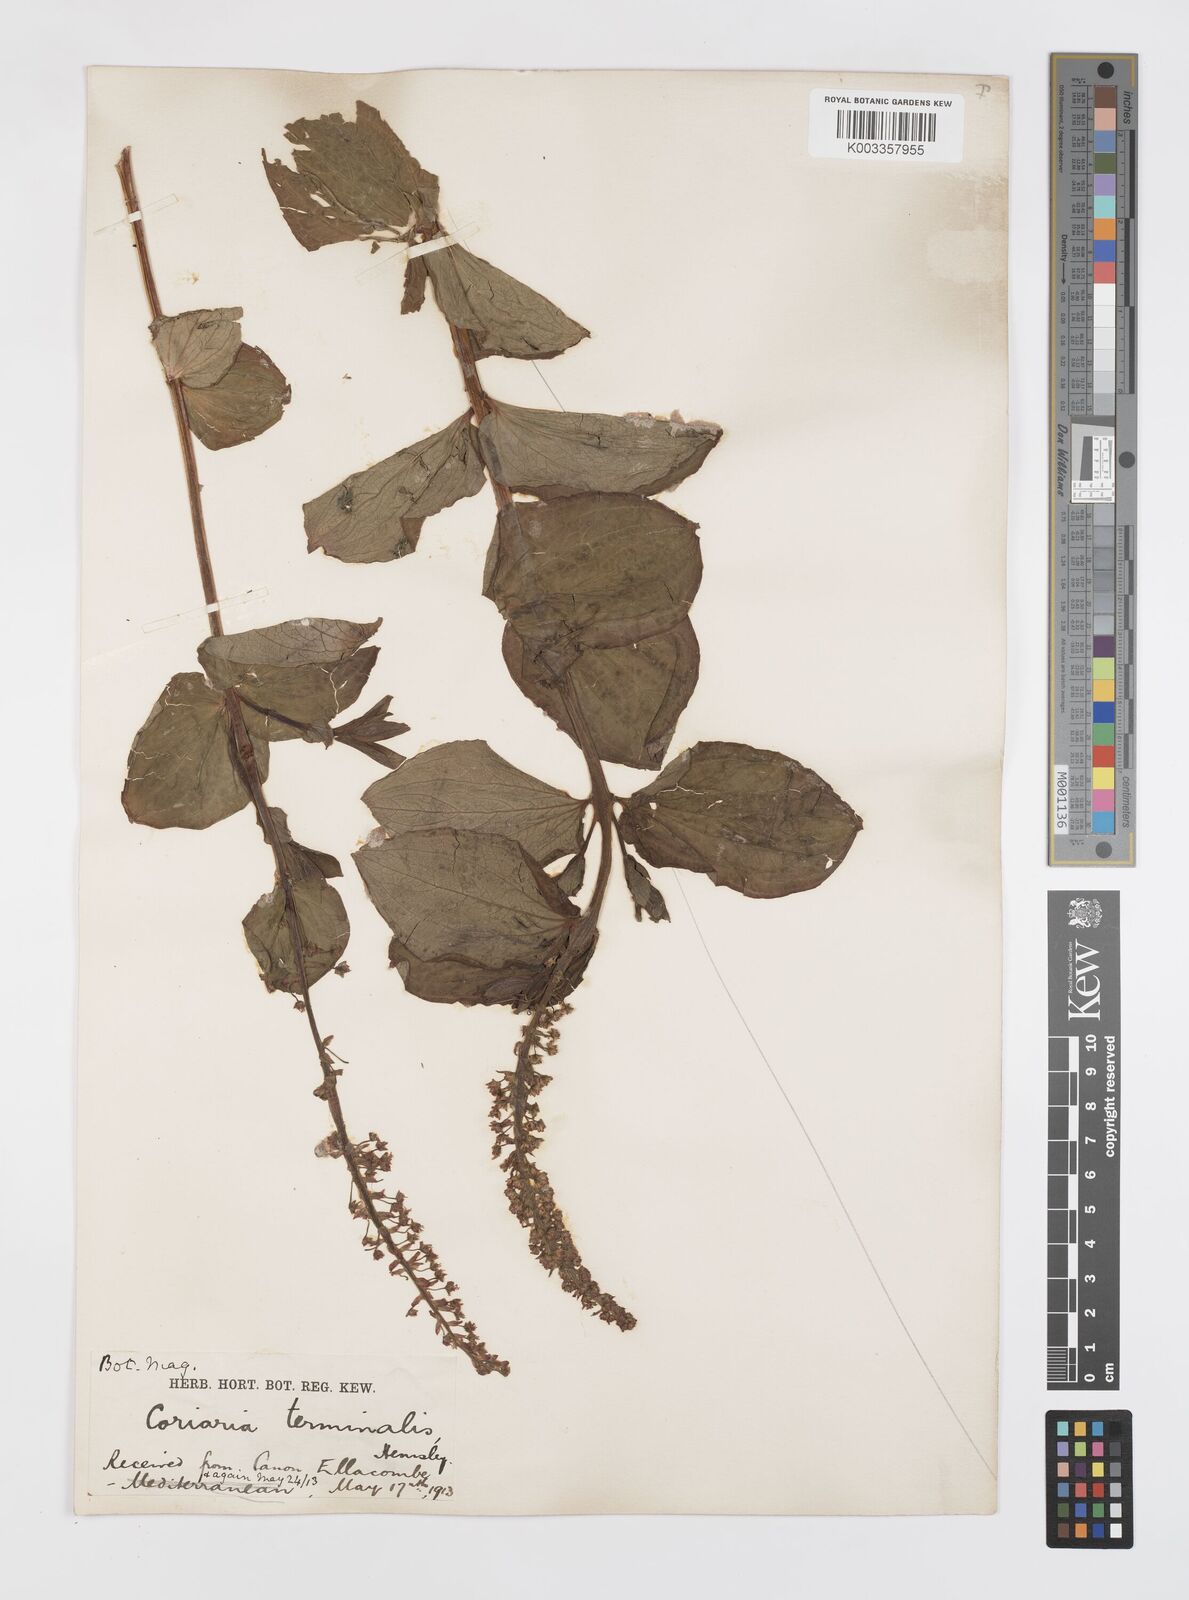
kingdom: Plantae
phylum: Tracheophyta
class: Magnoliopsida
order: Cucurbitales
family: Coriariaceae
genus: Coriaria
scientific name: Coriaria terminalis
